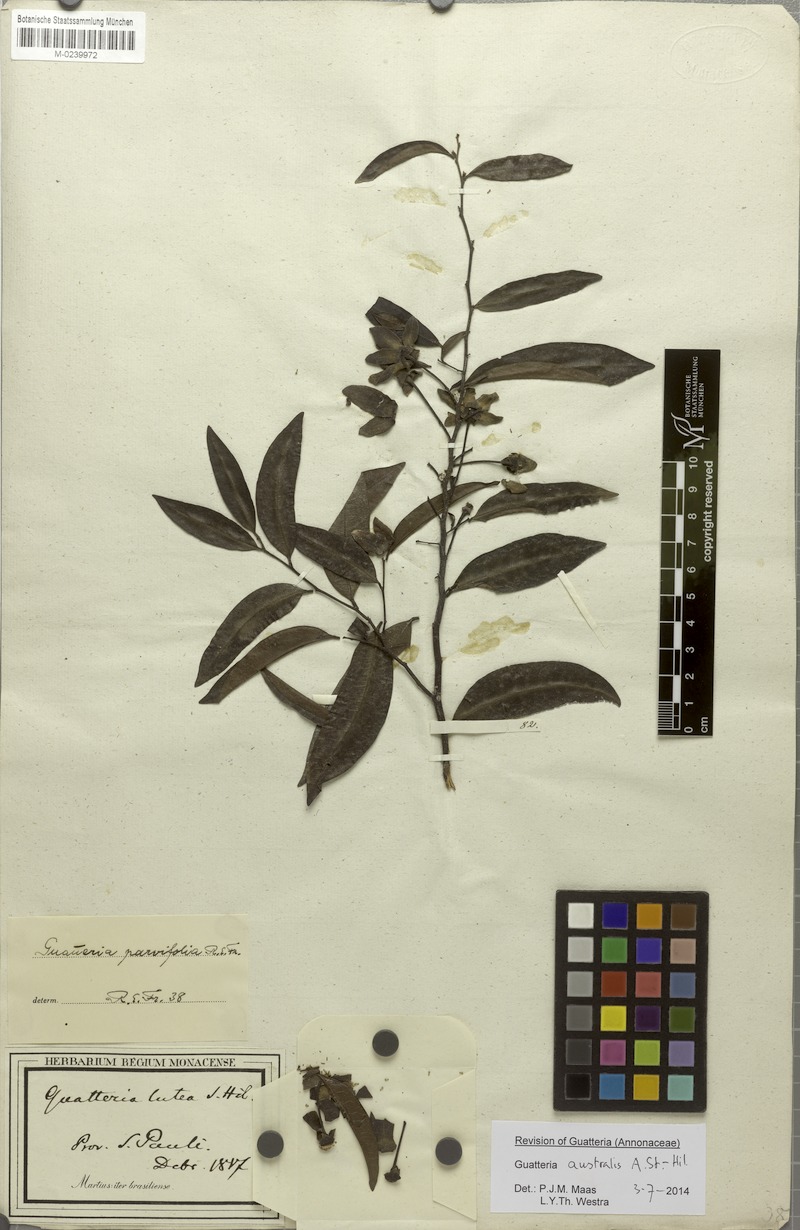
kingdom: Plantae
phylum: Tracheophyta
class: Magnoliopsida
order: Magnoliales
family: Annonaceae
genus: Guatteria
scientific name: Guatteria australis
